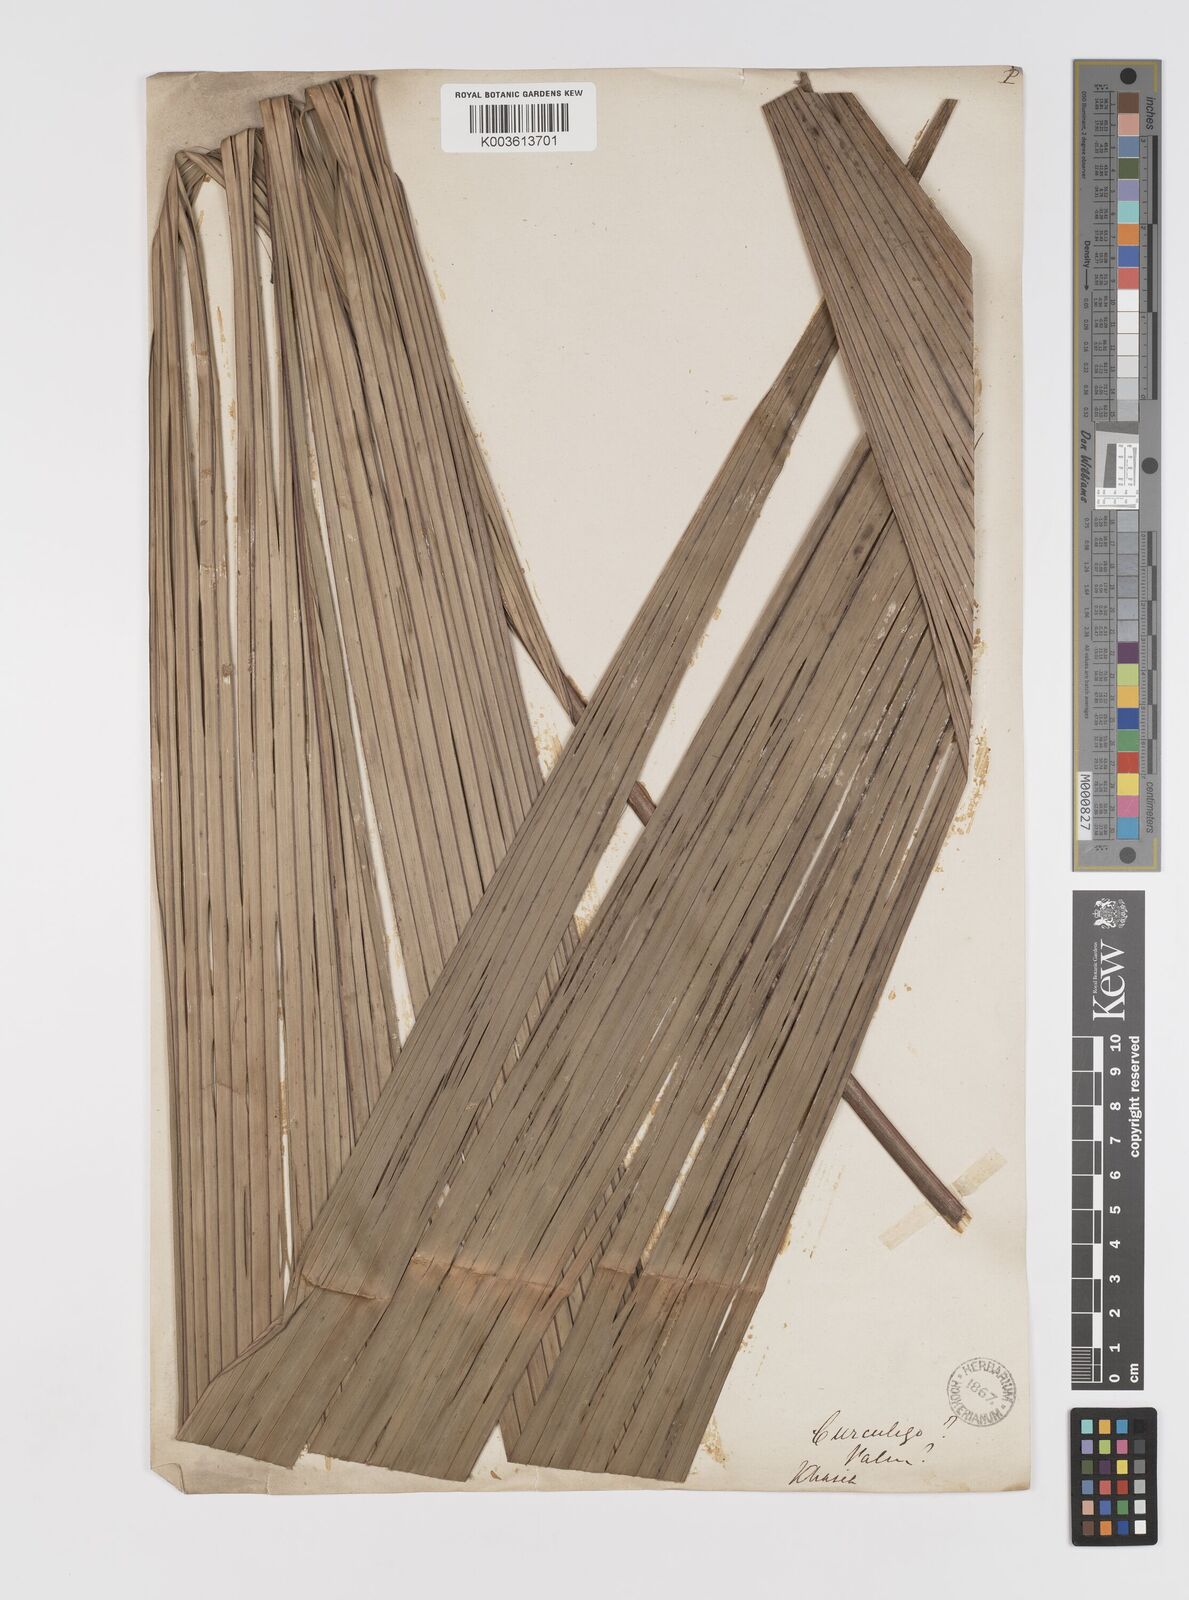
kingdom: Plantae
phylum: Tracheophyta
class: Liliopsida
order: Asparagales
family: Hypoxidaceae
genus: Curculigo
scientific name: Curculigo capitulata
